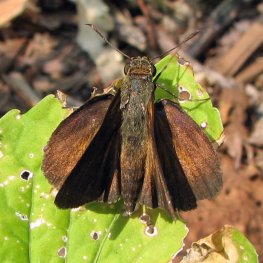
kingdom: Animalia
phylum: Arthropoda
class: Insecta
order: Lepidoptera
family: Hesperiidae
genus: Euphyes
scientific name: Euphyes dukesi
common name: Dukes' Skipper
